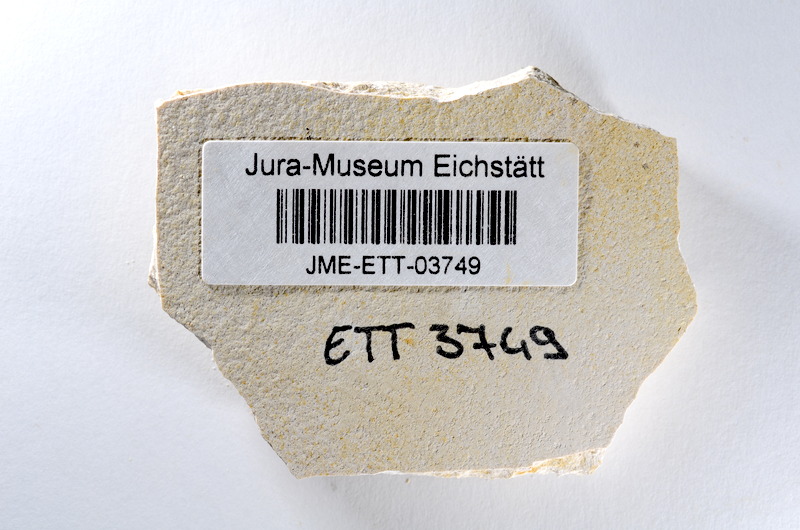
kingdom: Animalia
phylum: Chordata
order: Salmoniformes
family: Orthogonikleithridae
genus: Orthogonikleithrus
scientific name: Orthogonikleithrus hoelli
